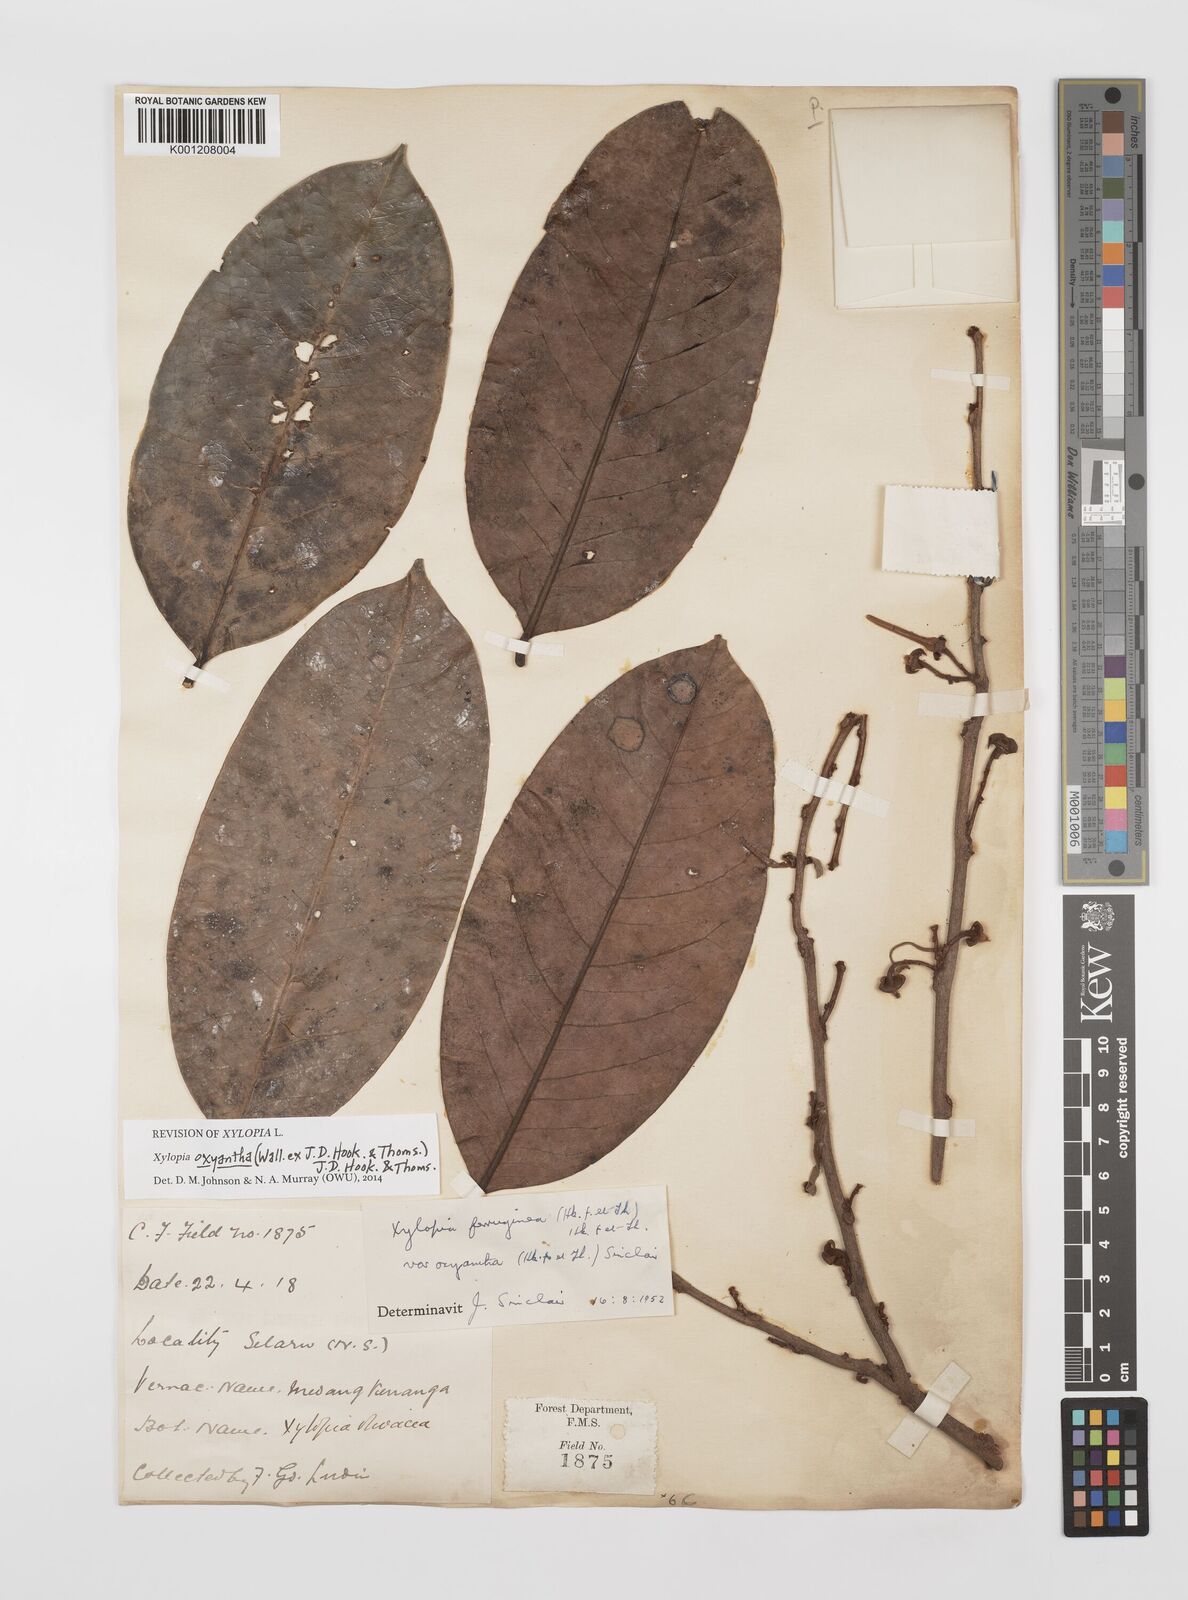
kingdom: Plantae
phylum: Tracheophyta
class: Magnoliopsida
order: Magnoliales
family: Annonaceae
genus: Xylopia
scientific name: Xylopia ferruginea
